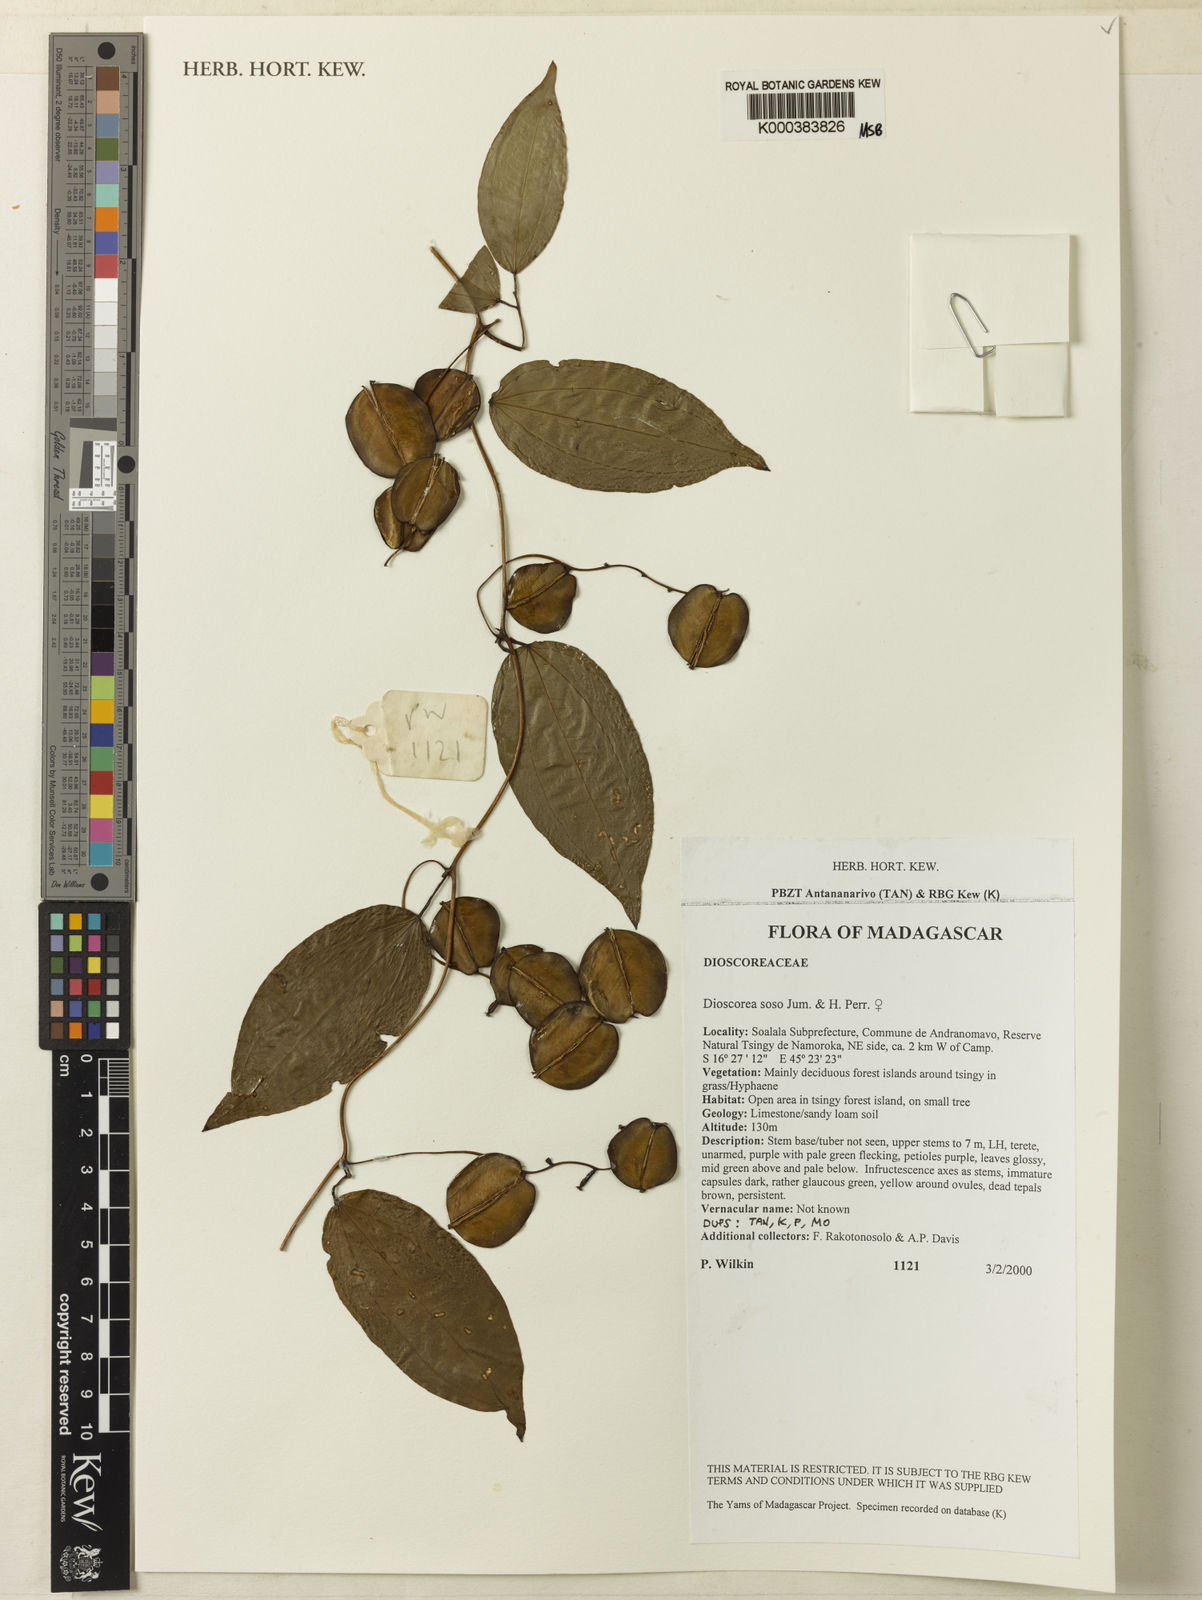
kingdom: Plantae
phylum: Tracheophyta
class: Liliopsida
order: Dioscoreales
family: Dioscoreaceae
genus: Dioscorea
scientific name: Dioscorea
